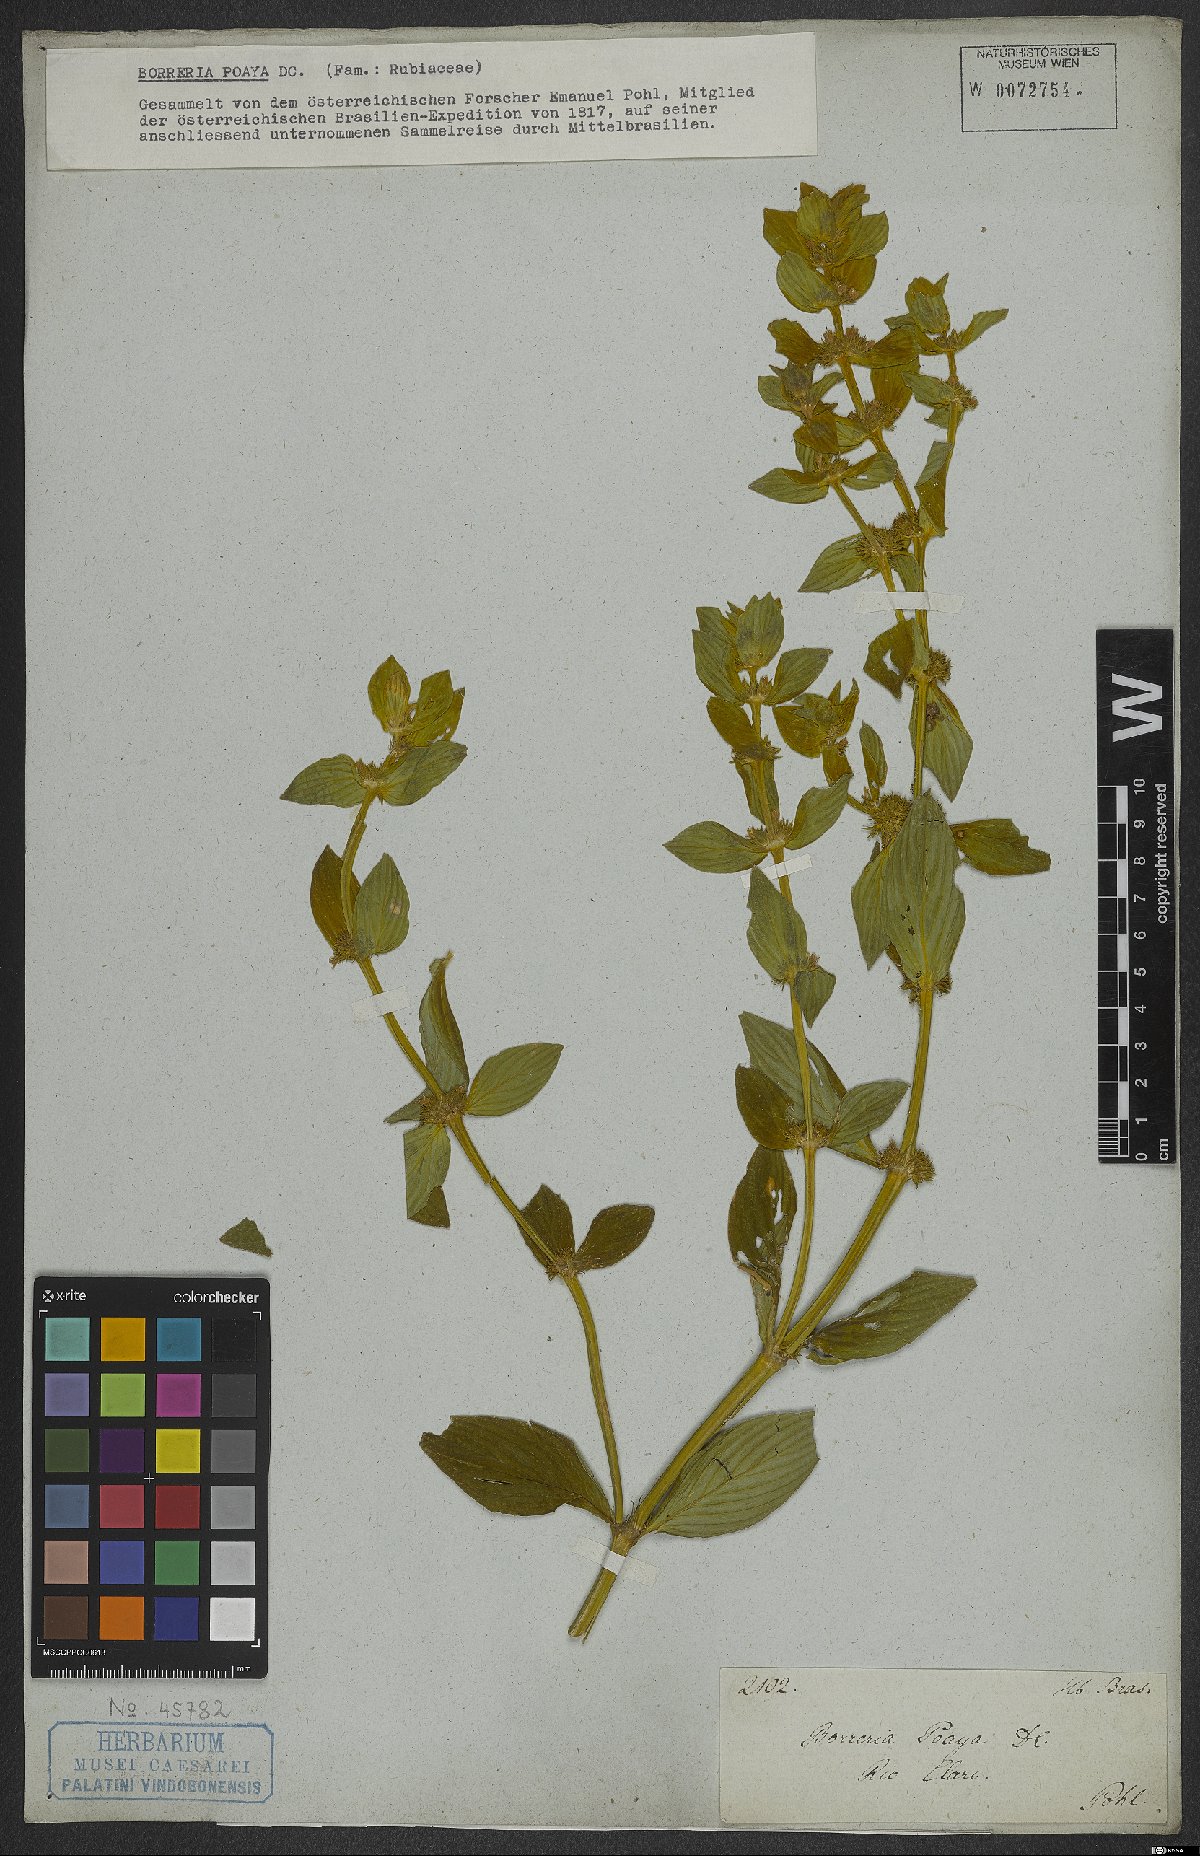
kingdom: Plantae
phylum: Tracheophyta
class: Magnoliopsida
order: Gentianales
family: Rubiaceae
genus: Spermacoce
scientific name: Spermacoce poaya
